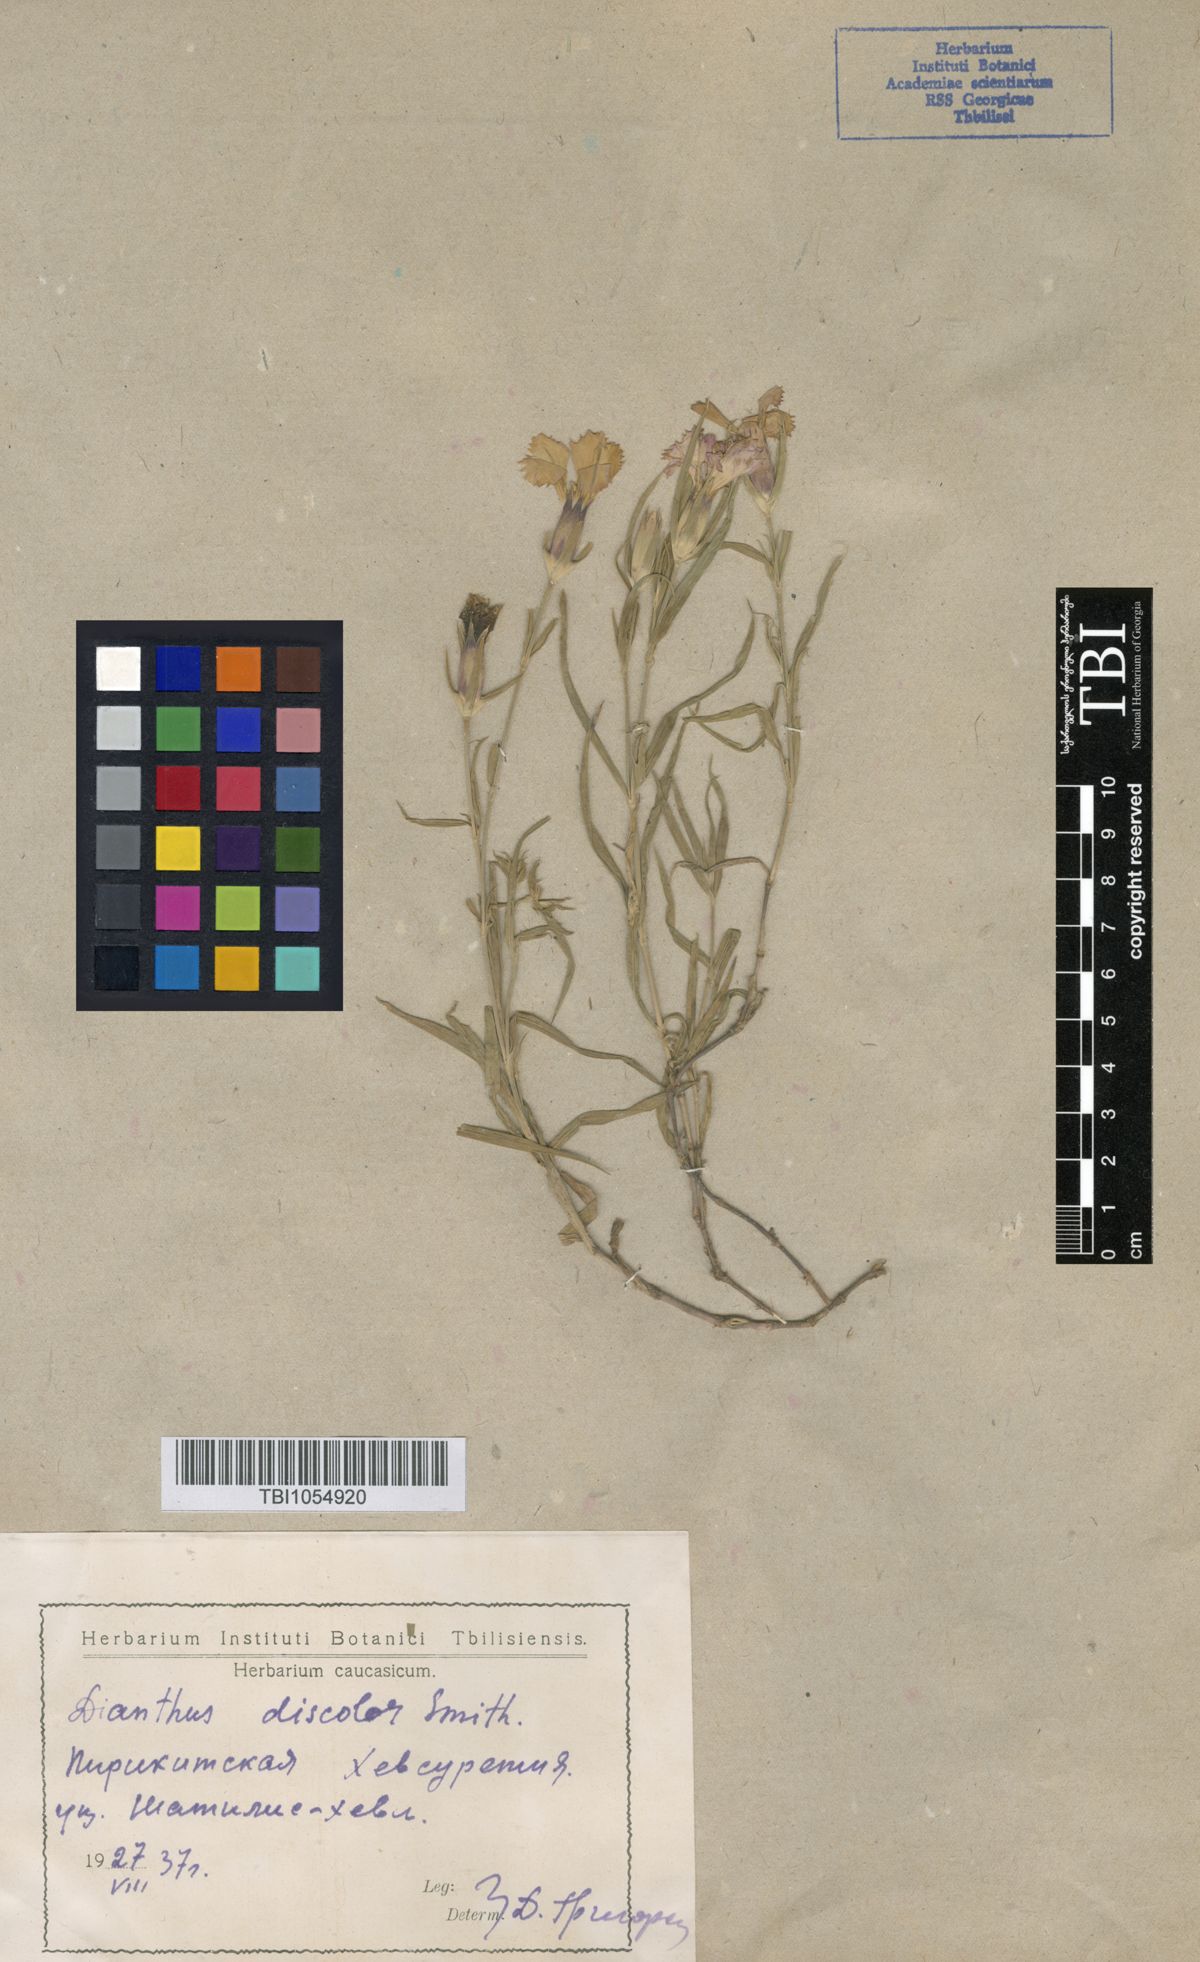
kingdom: Plantae
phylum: Tracheophyta
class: Magnoliopsida
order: Caryophyllales
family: Caryophyllaceae
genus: Dianthus
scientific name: Dianthus caucaseus
